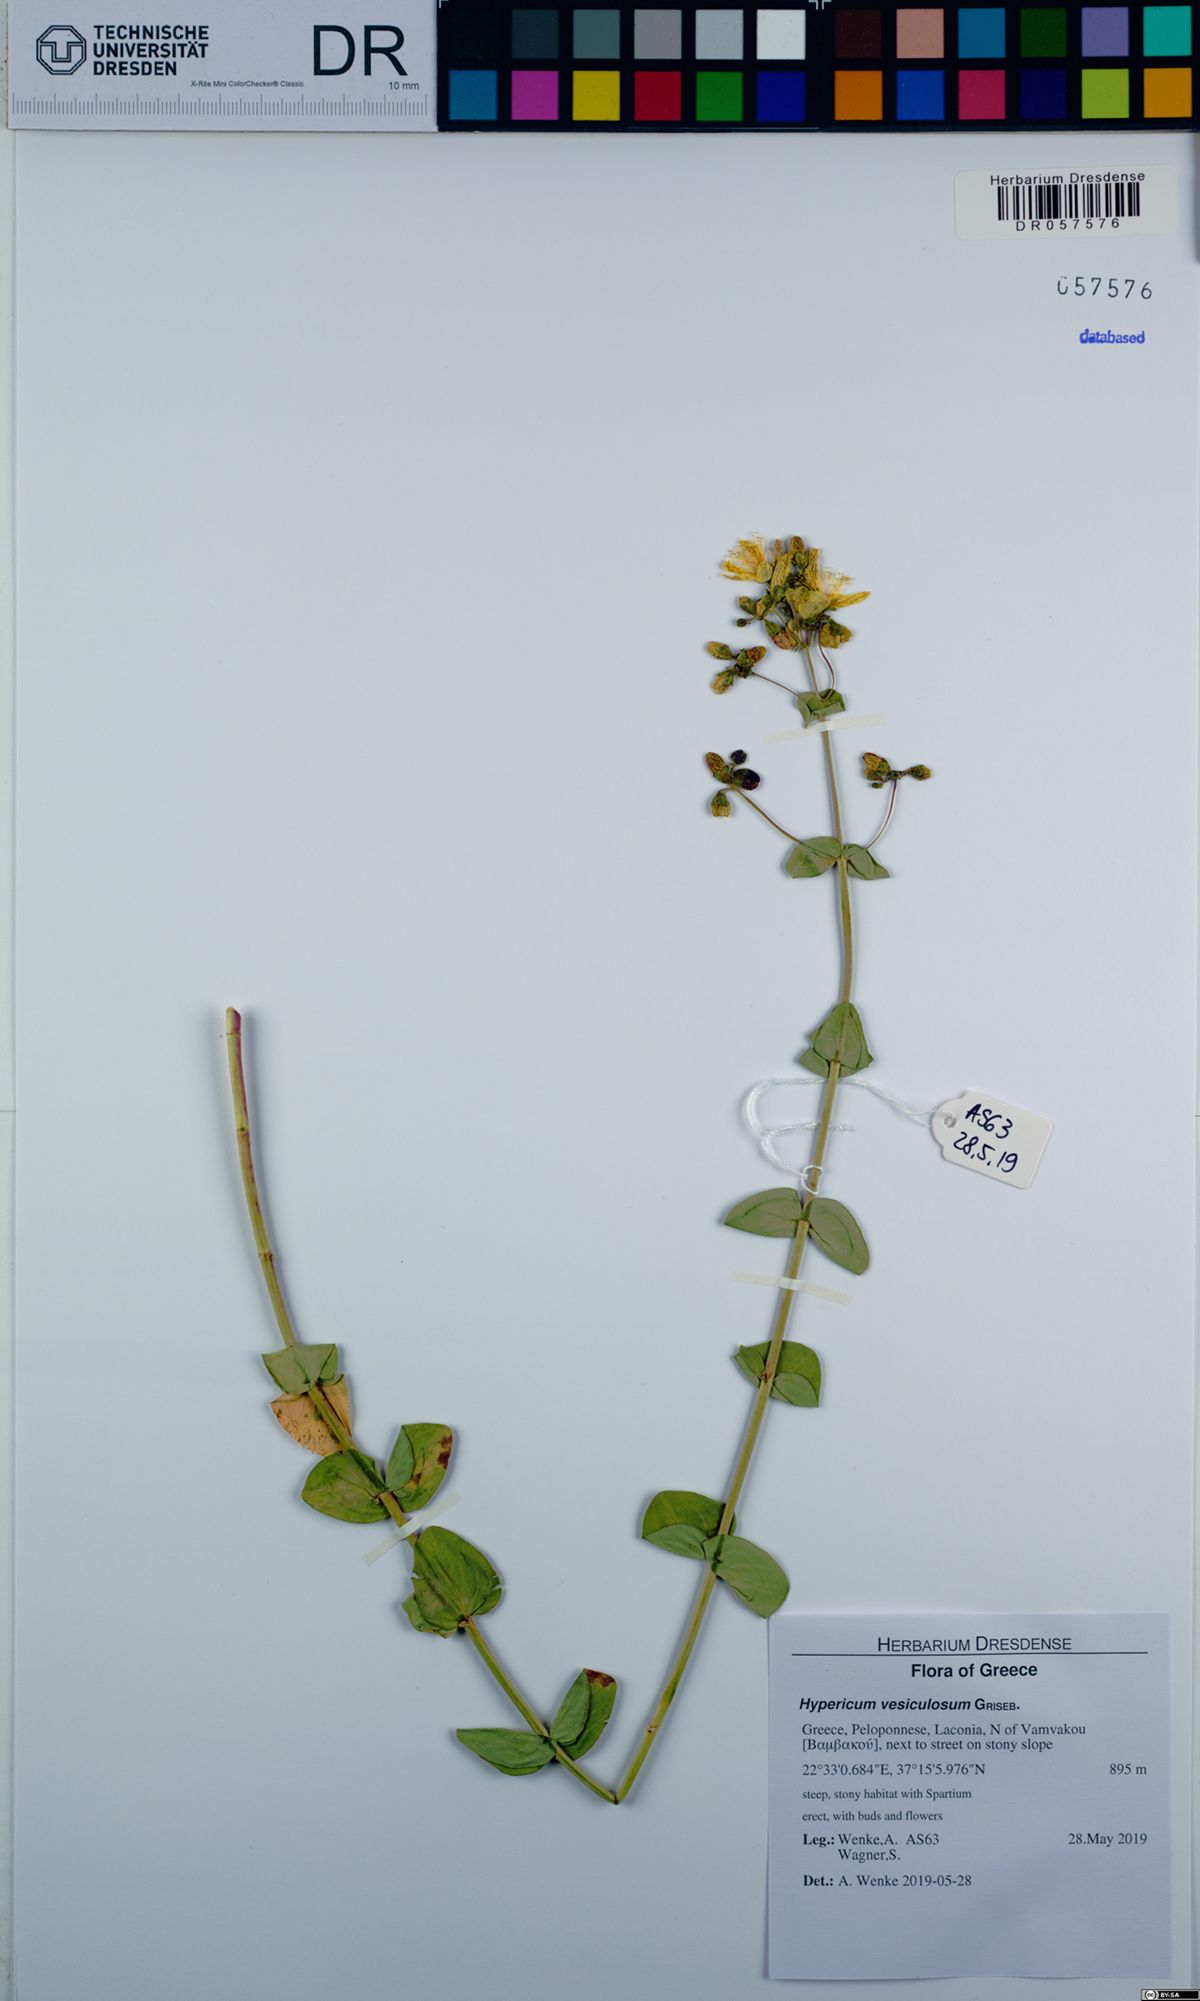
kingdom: Plantae
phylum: Tracheophyta
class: Magnoliopsida
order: Malpighiales
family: Hypericaceae
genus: Hypericum
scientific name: Hypericum vesiculosum
